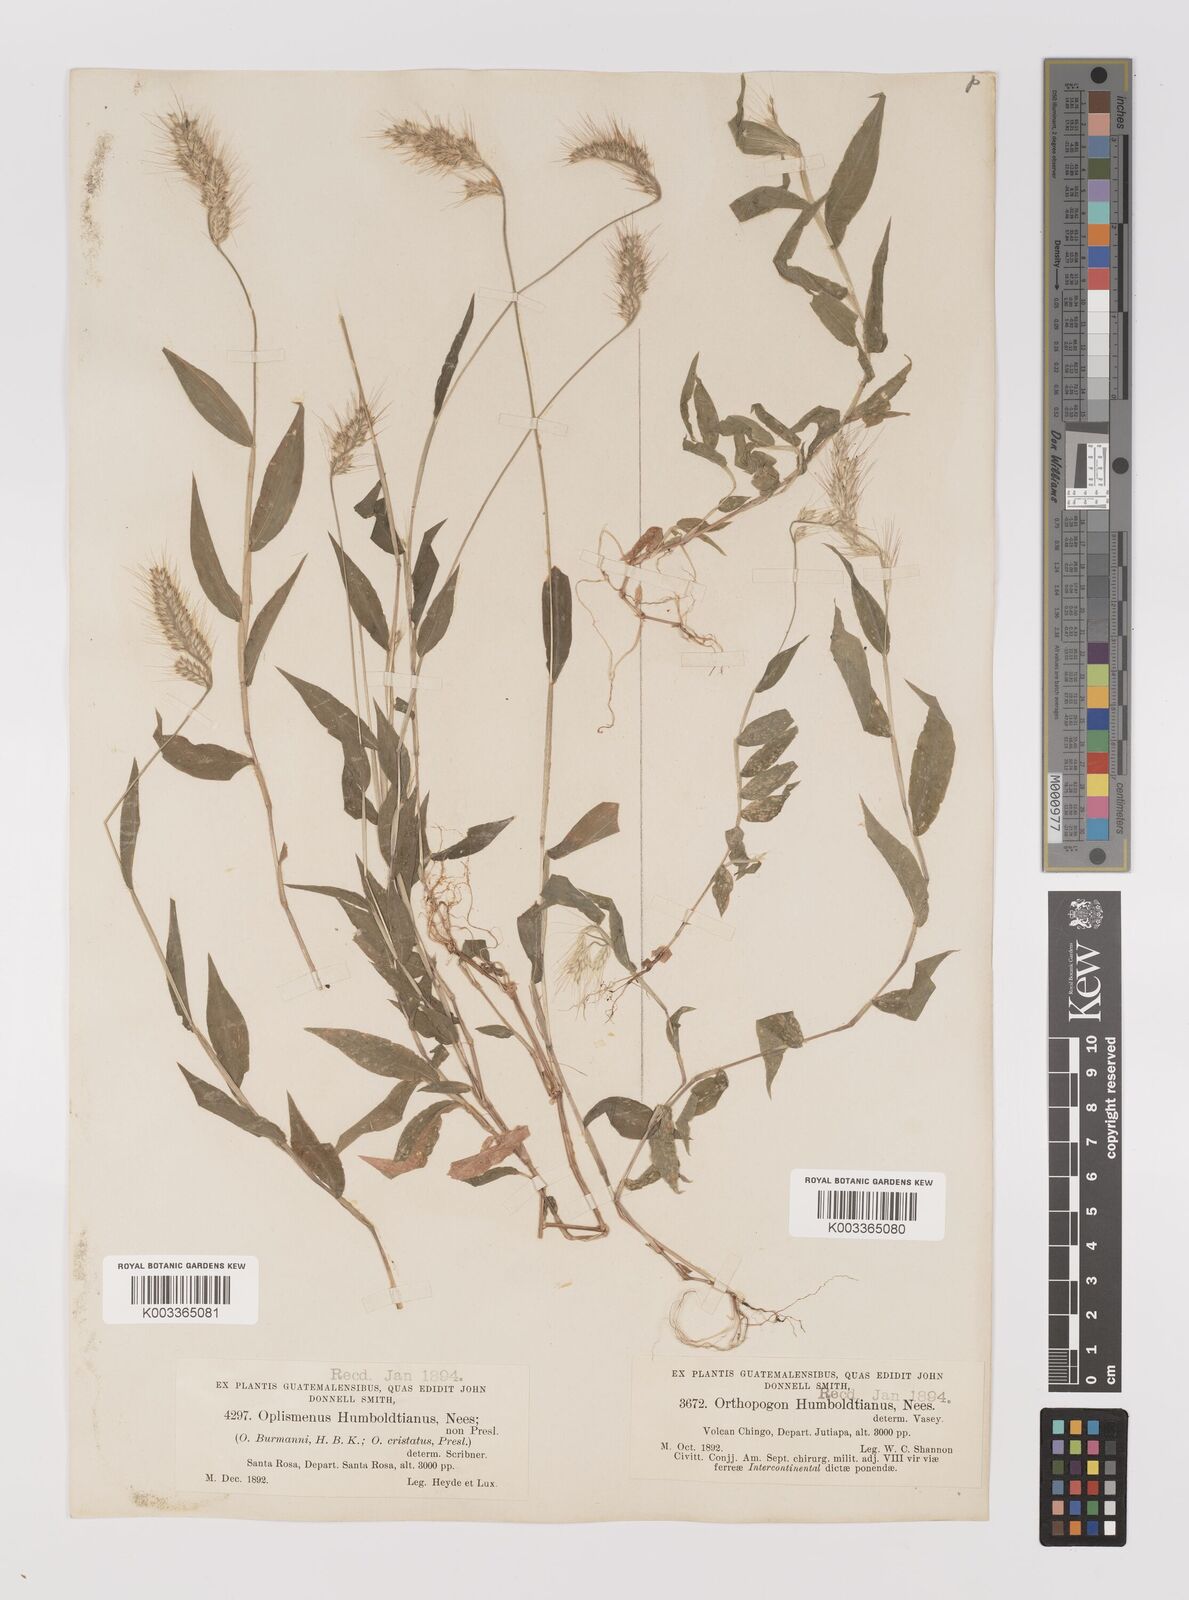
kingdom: Plantae
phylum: Tracheophyta
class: Liliopsida
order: Poales
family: Poaceae
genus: Oplismenus
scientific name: Oplismenus burmanni
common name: Burmann's basketgrass
